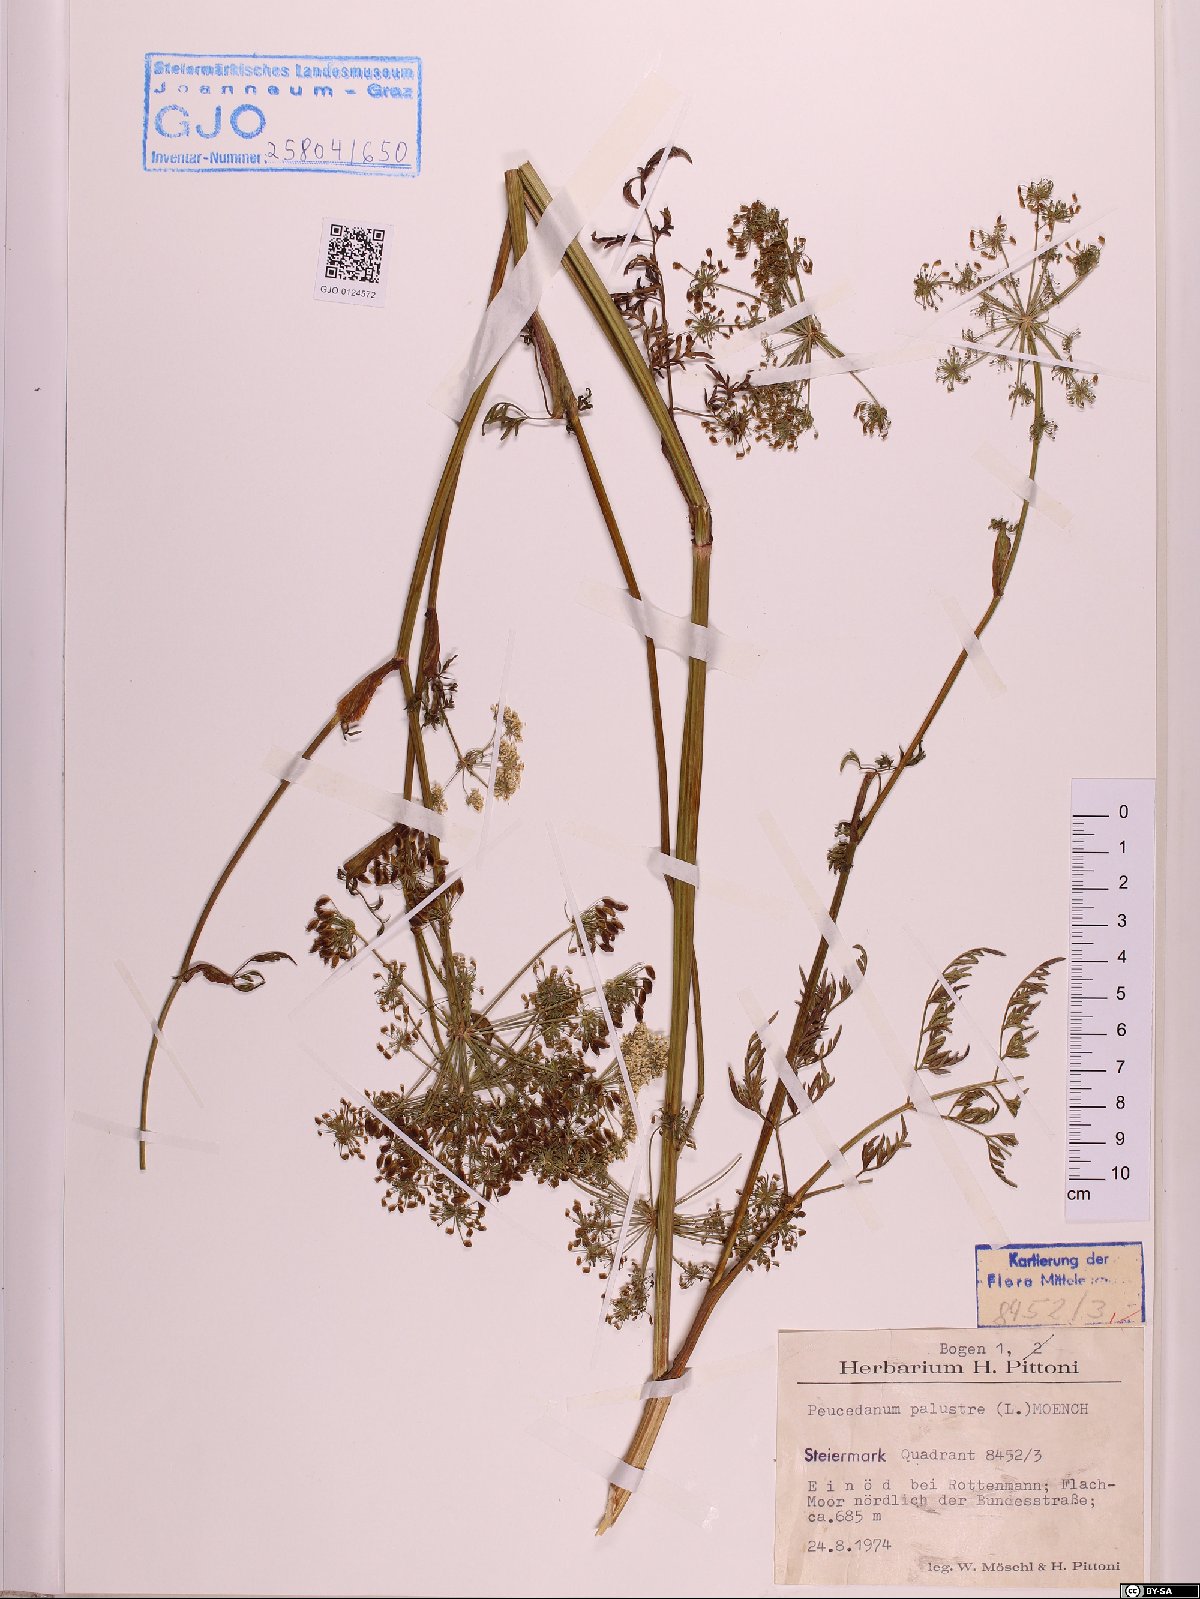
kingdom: Plantae
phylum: Tracheophyta
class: Magnoliopsida
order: Apiales
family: Apiaceae
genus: Thysselinum
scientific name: Thysselinum palustre
